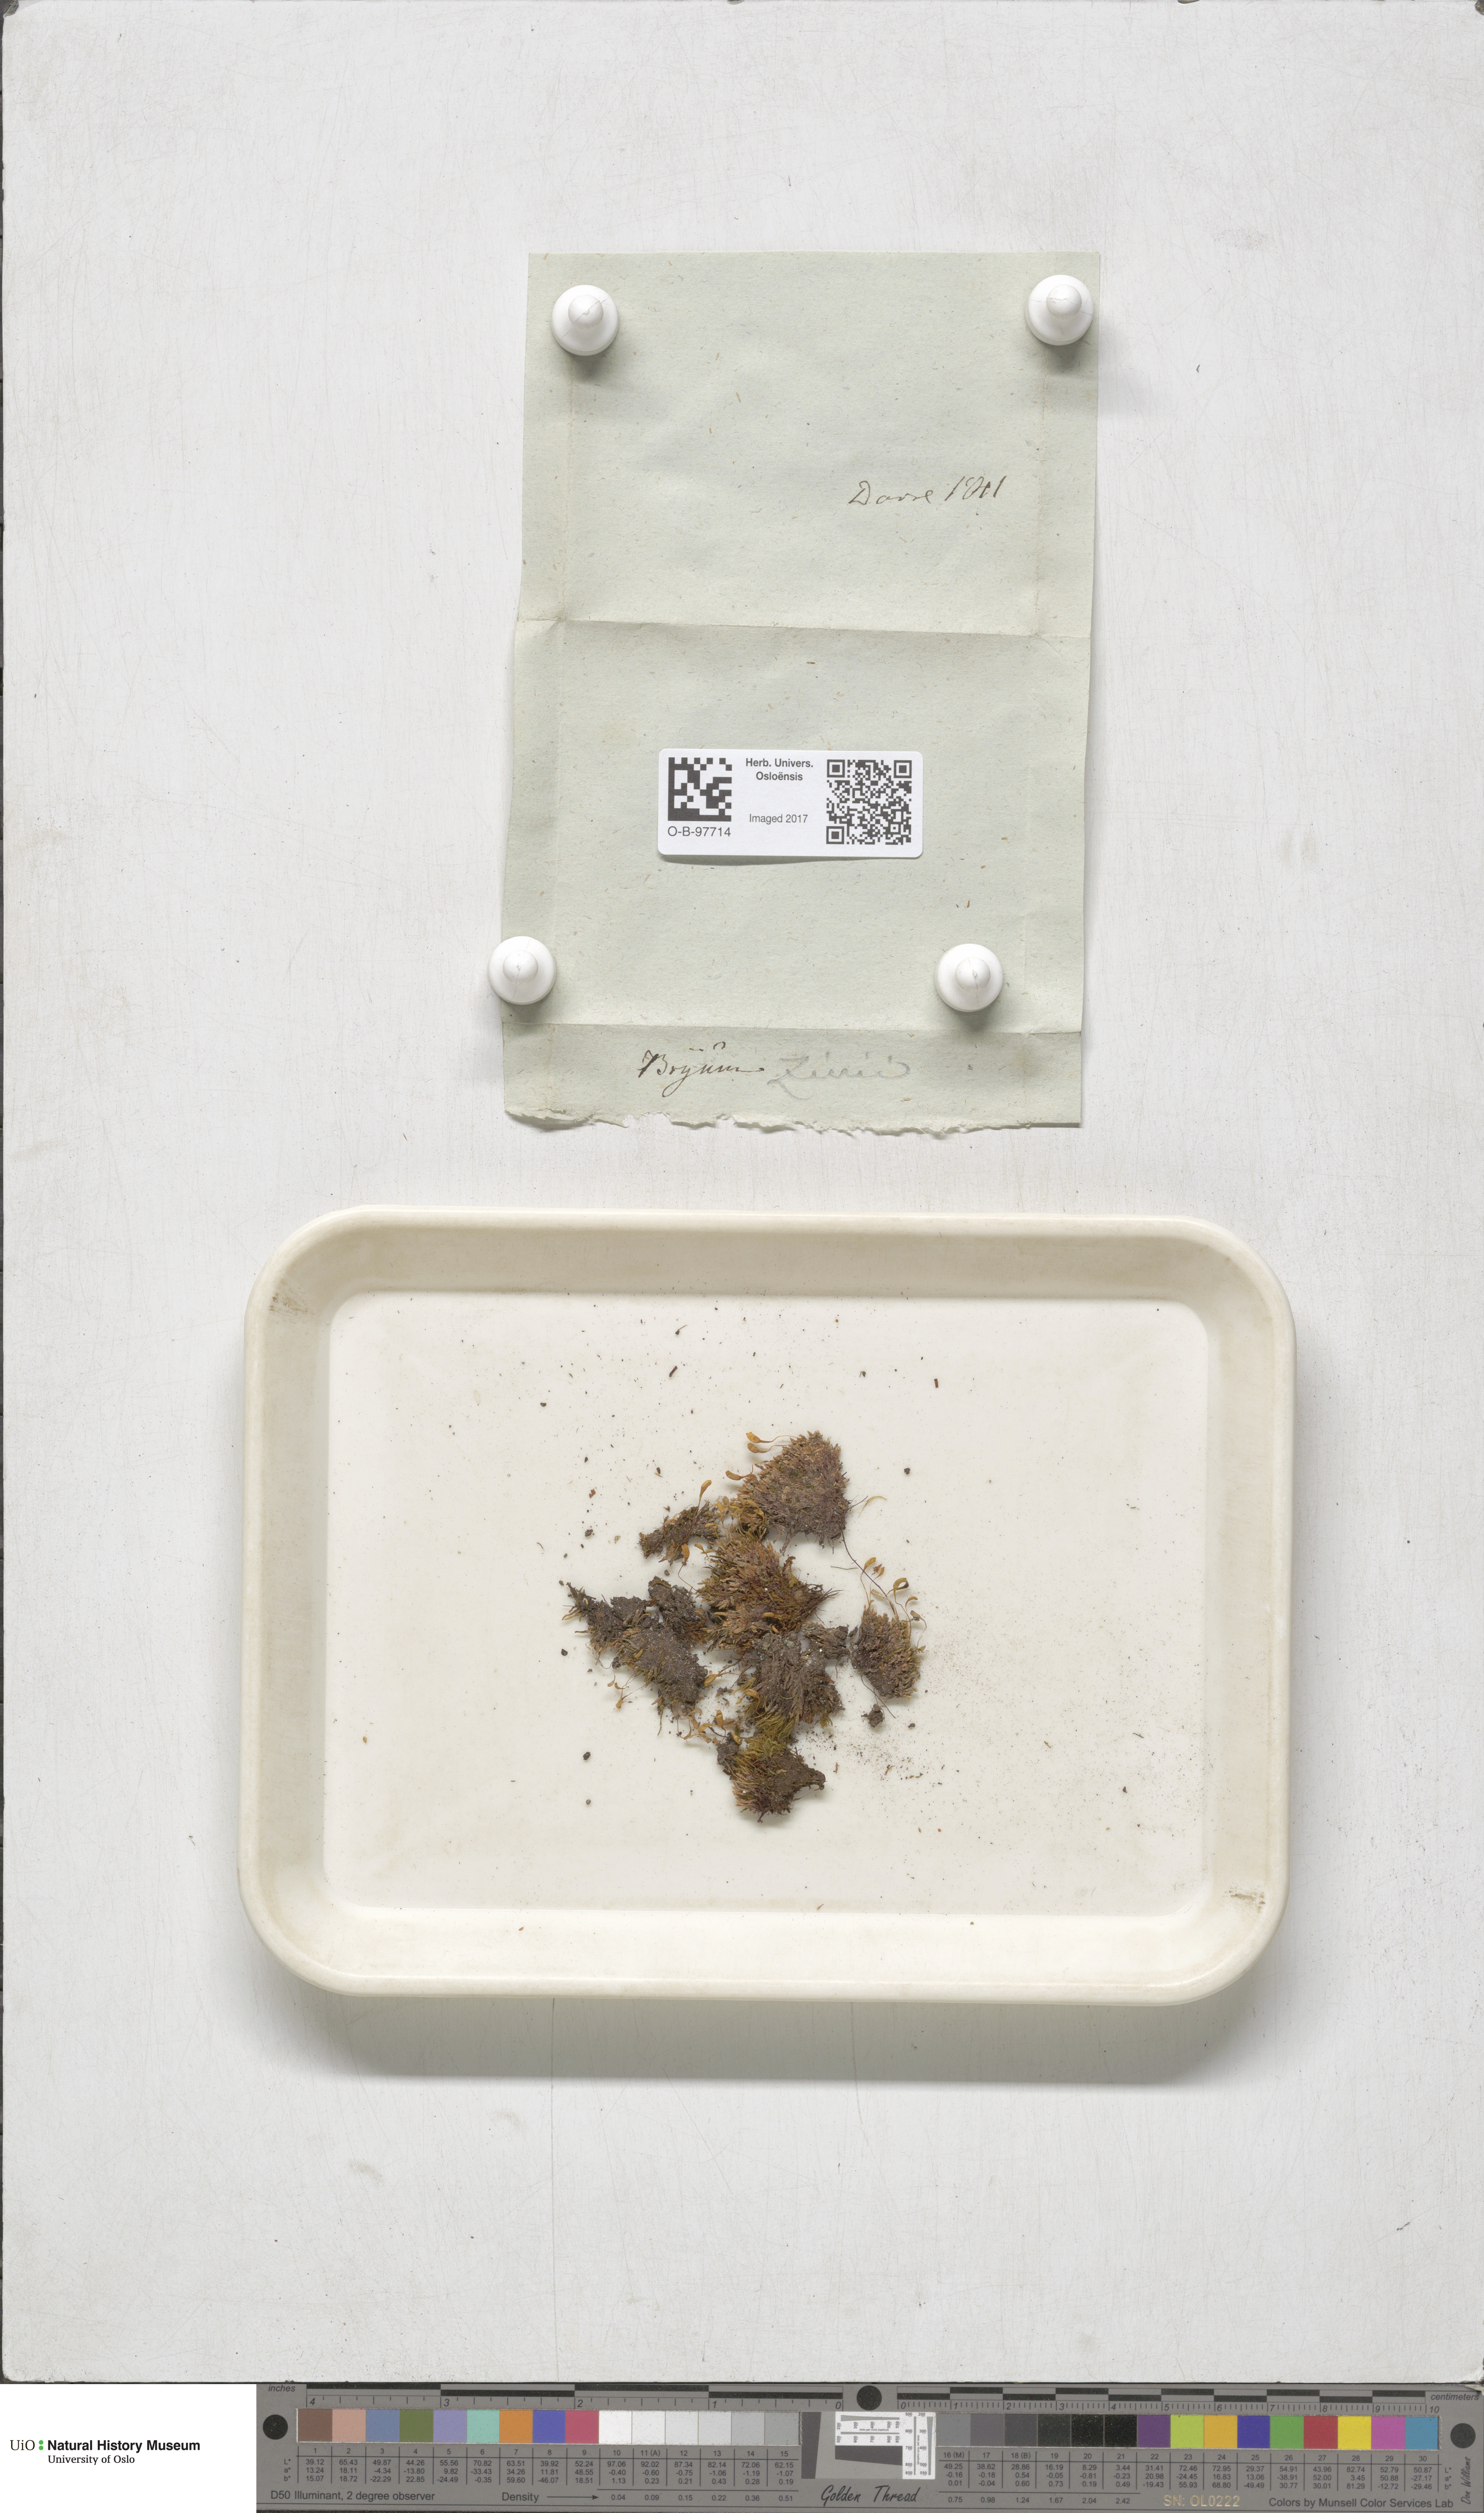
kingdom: Plantae
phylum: Bryophyta
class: Bryopsida
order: Bryales
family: Bryaceae
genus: Plagiobryum
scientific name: Plagiobryum zieri
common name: Zier's hump moss
